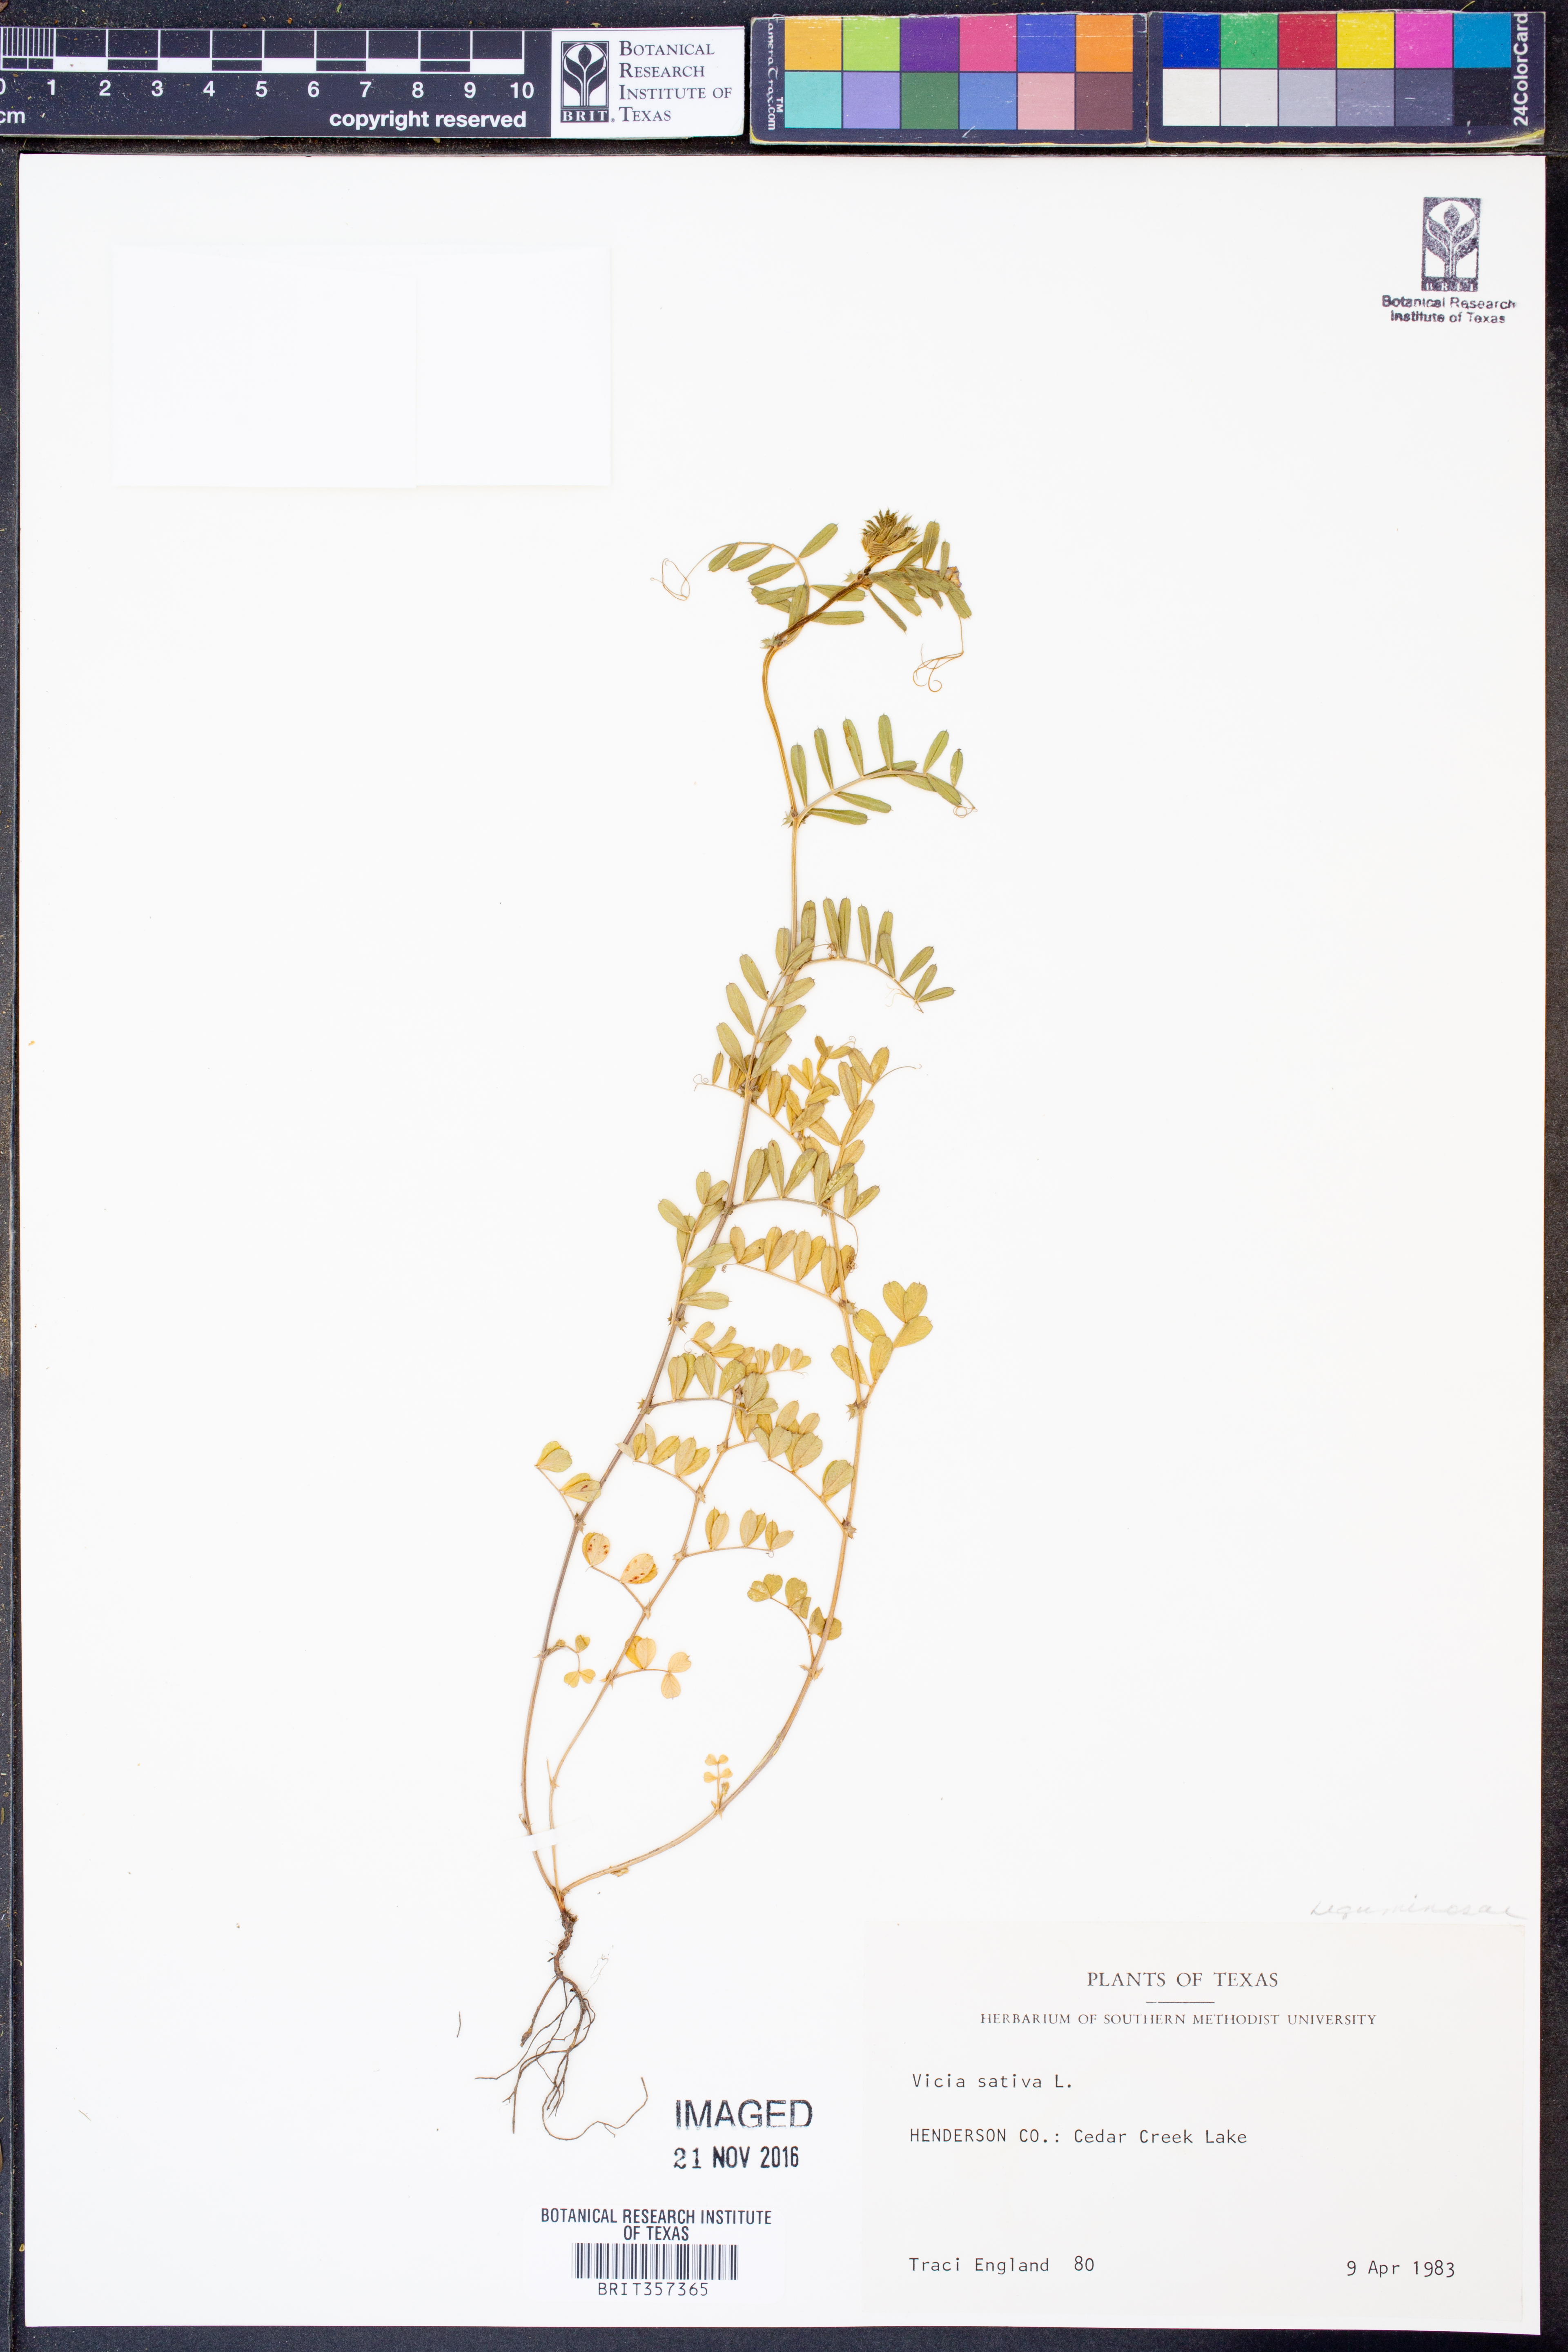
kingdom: Plantae
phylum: Tracheophyta
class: Magnoliopsida
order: Fabales
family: Fabaceae
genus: Vicia
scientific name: Vicia sativa
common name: Garden vetch
